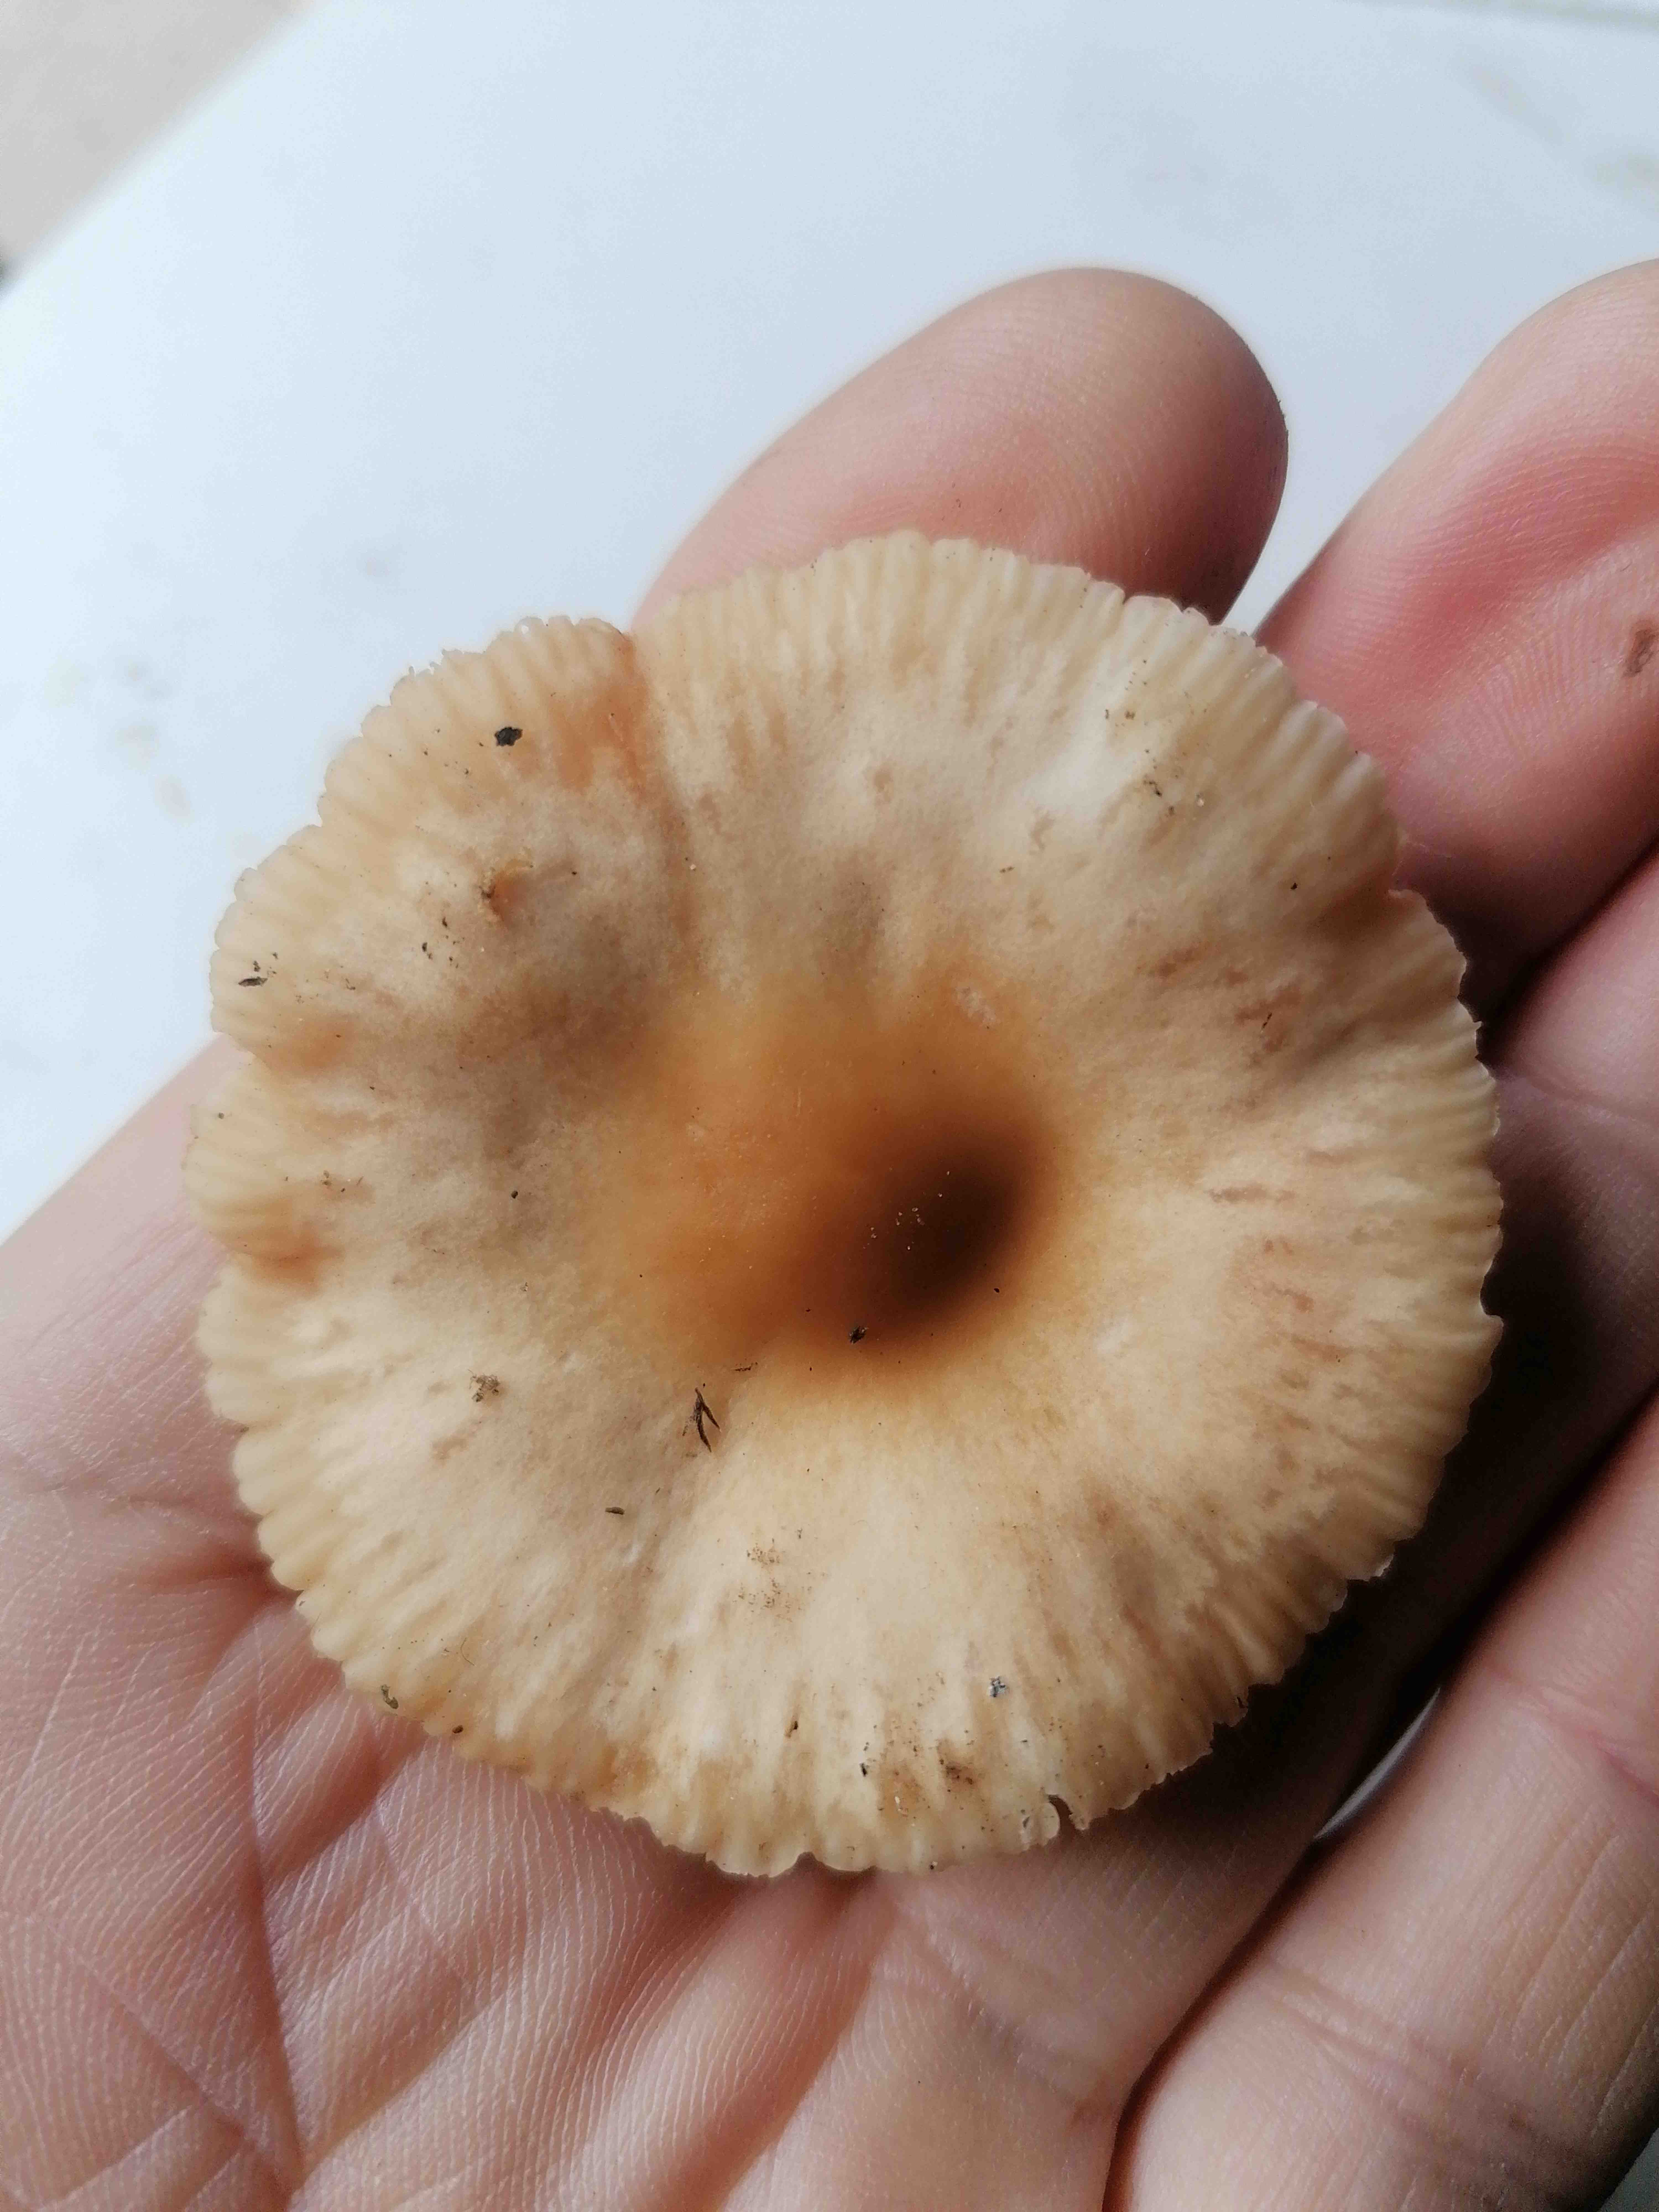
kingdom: Fungi
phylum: Basidiomycota
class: Agaricomycetes
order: Agaricales
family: Marasmiaceae
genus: Marasmius
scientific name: Marasmius oreades
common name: elledans-bruskhat
